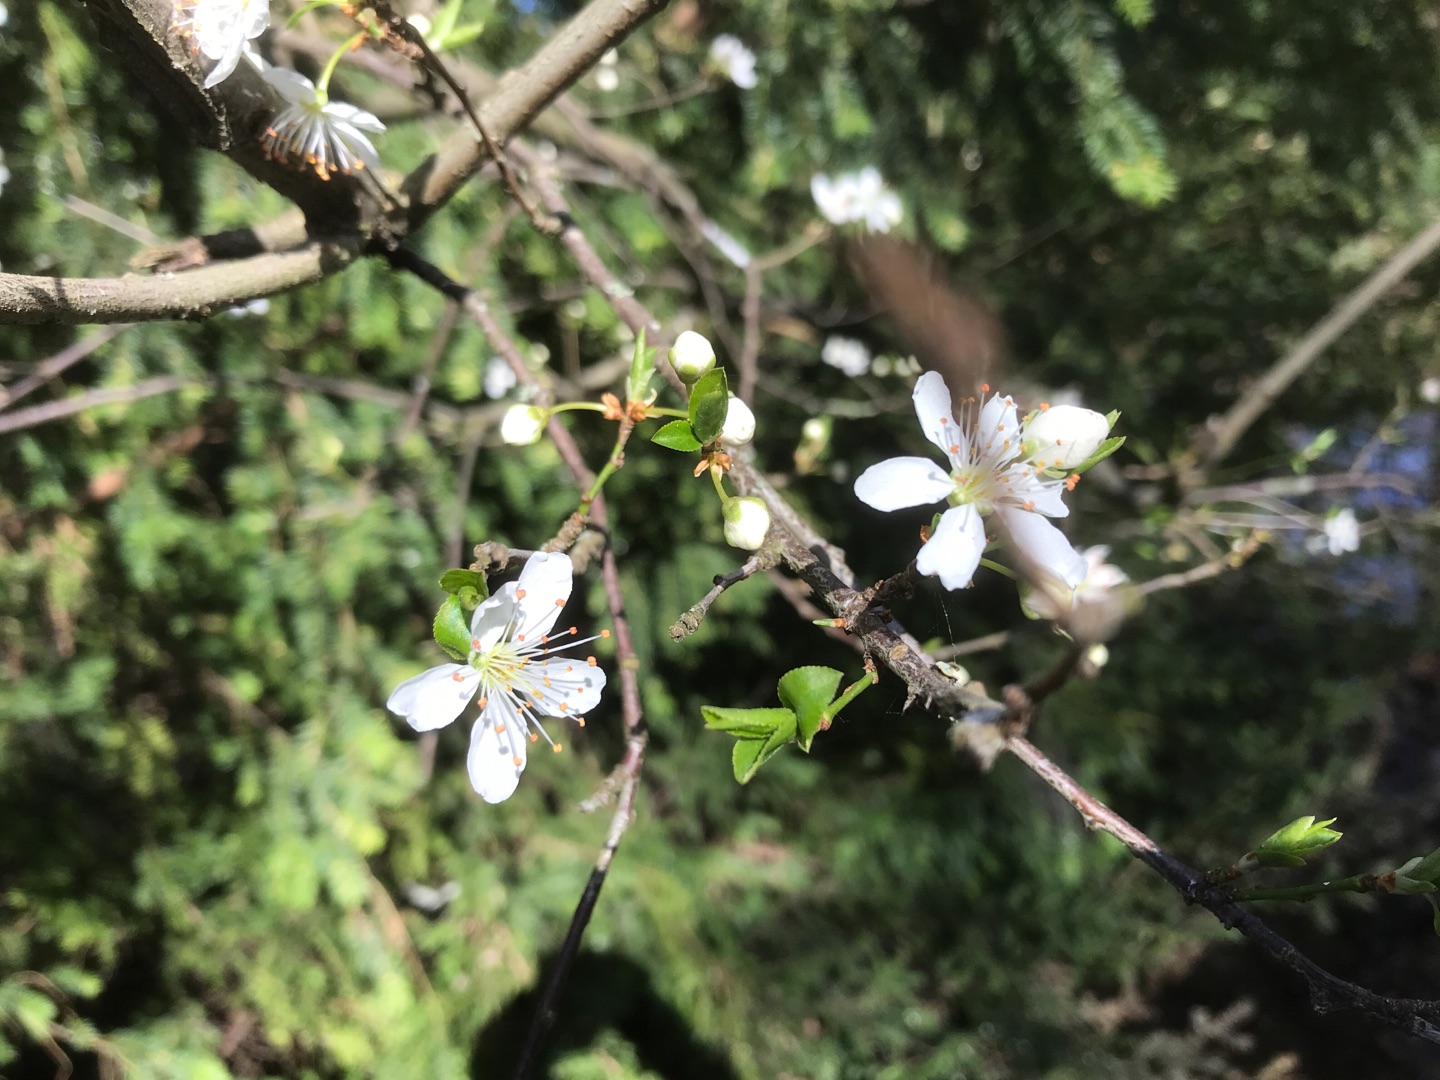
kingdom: Plantae
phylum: Tracheophyta
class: Magnoliopsida
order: Rosales
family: Rosaceae
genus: Prunus
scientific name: Prunus cerasifera
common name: Mirabel
